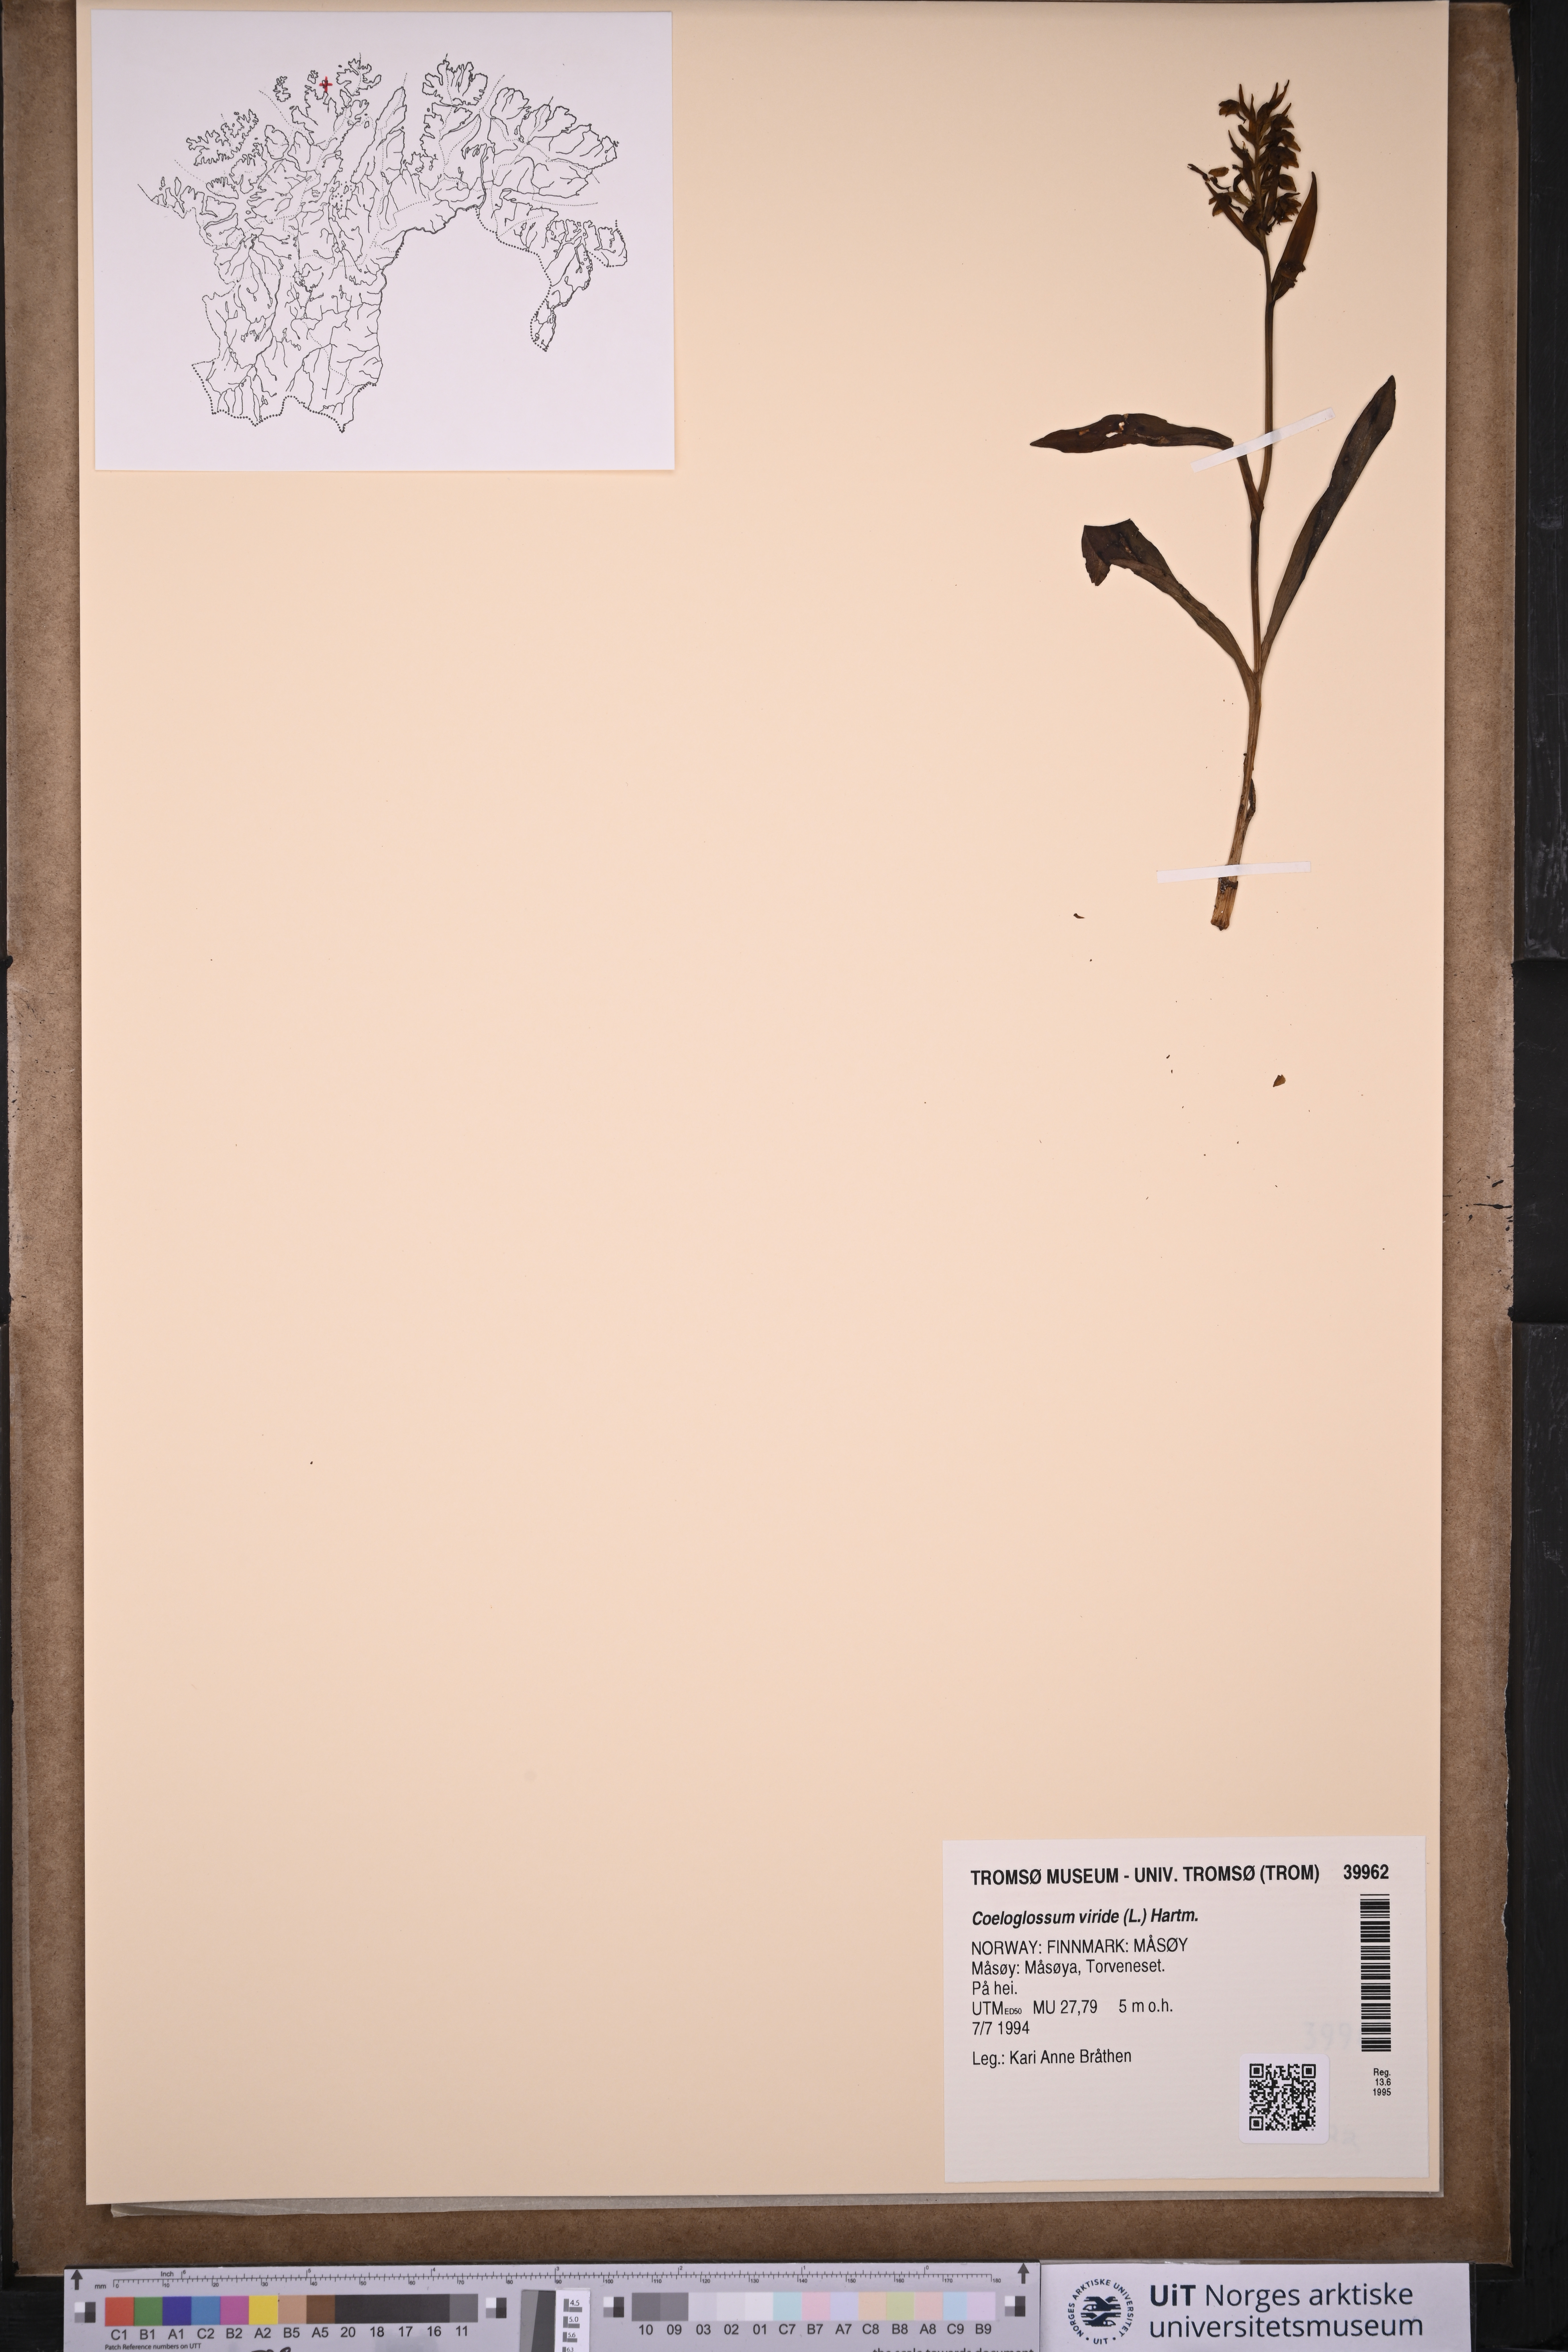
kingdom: Plantae
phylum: Tracheophyta
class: Liliopsida
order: Asparagales
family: Orchidaceae
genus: Dactylorhiza
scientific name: Dactylorhiza viridis
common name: Longbract frog orchid
